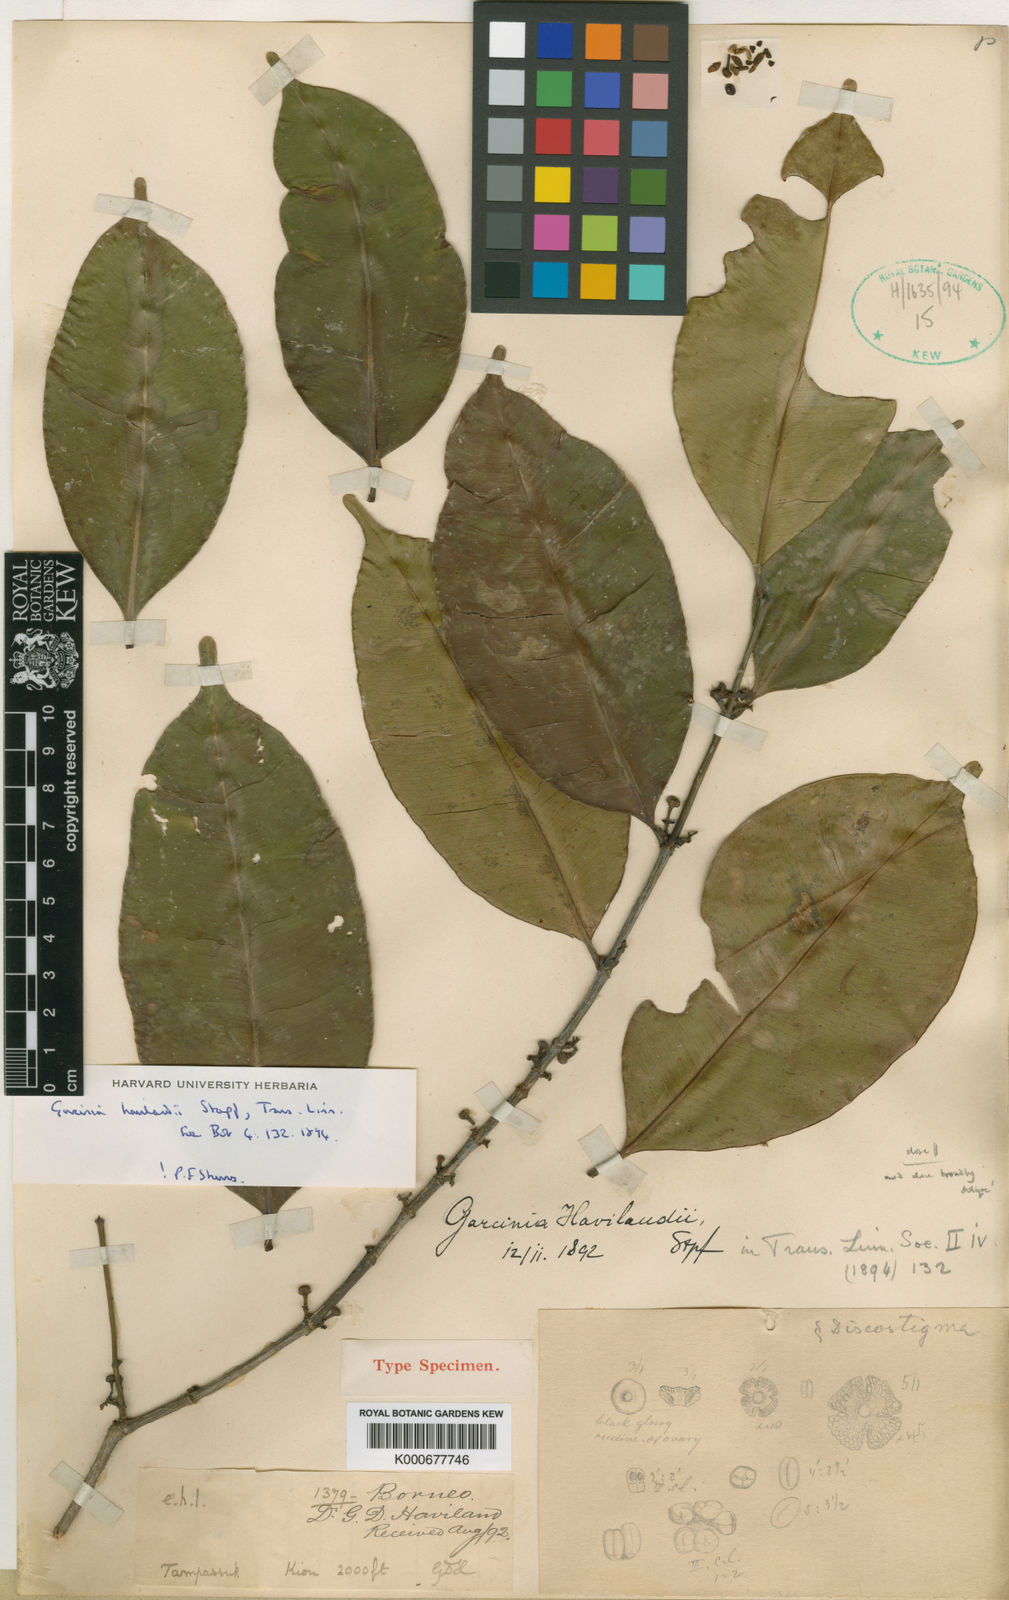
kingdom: Plantae
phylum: Tracheophyta
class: Magnoliopsida
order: Malpighiales
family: Clusiaceae
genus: Garcinia
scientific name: Garcinia havilandii
